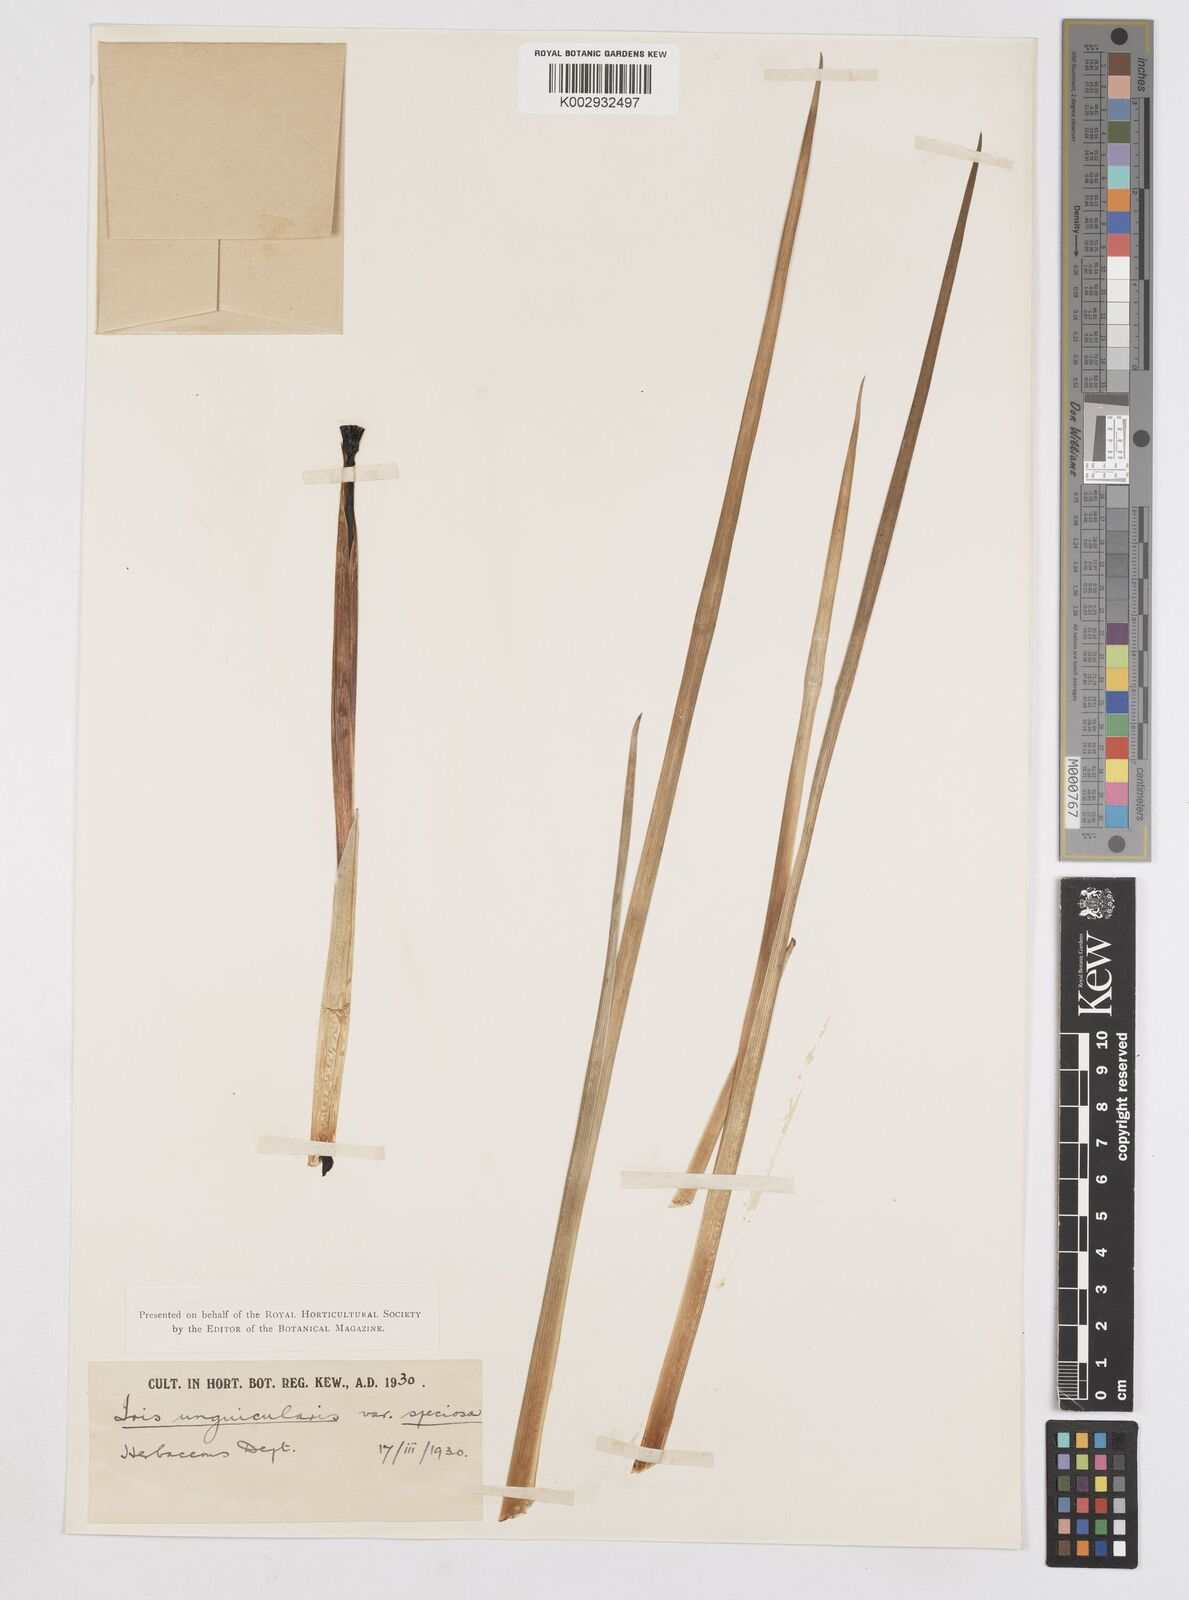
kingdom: Plantae
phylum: Tracheophyta
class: Liliopsida
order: Asparagales
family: Iridaceae
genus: Iris
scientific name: Iris unguicularis
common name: Algerian iris
